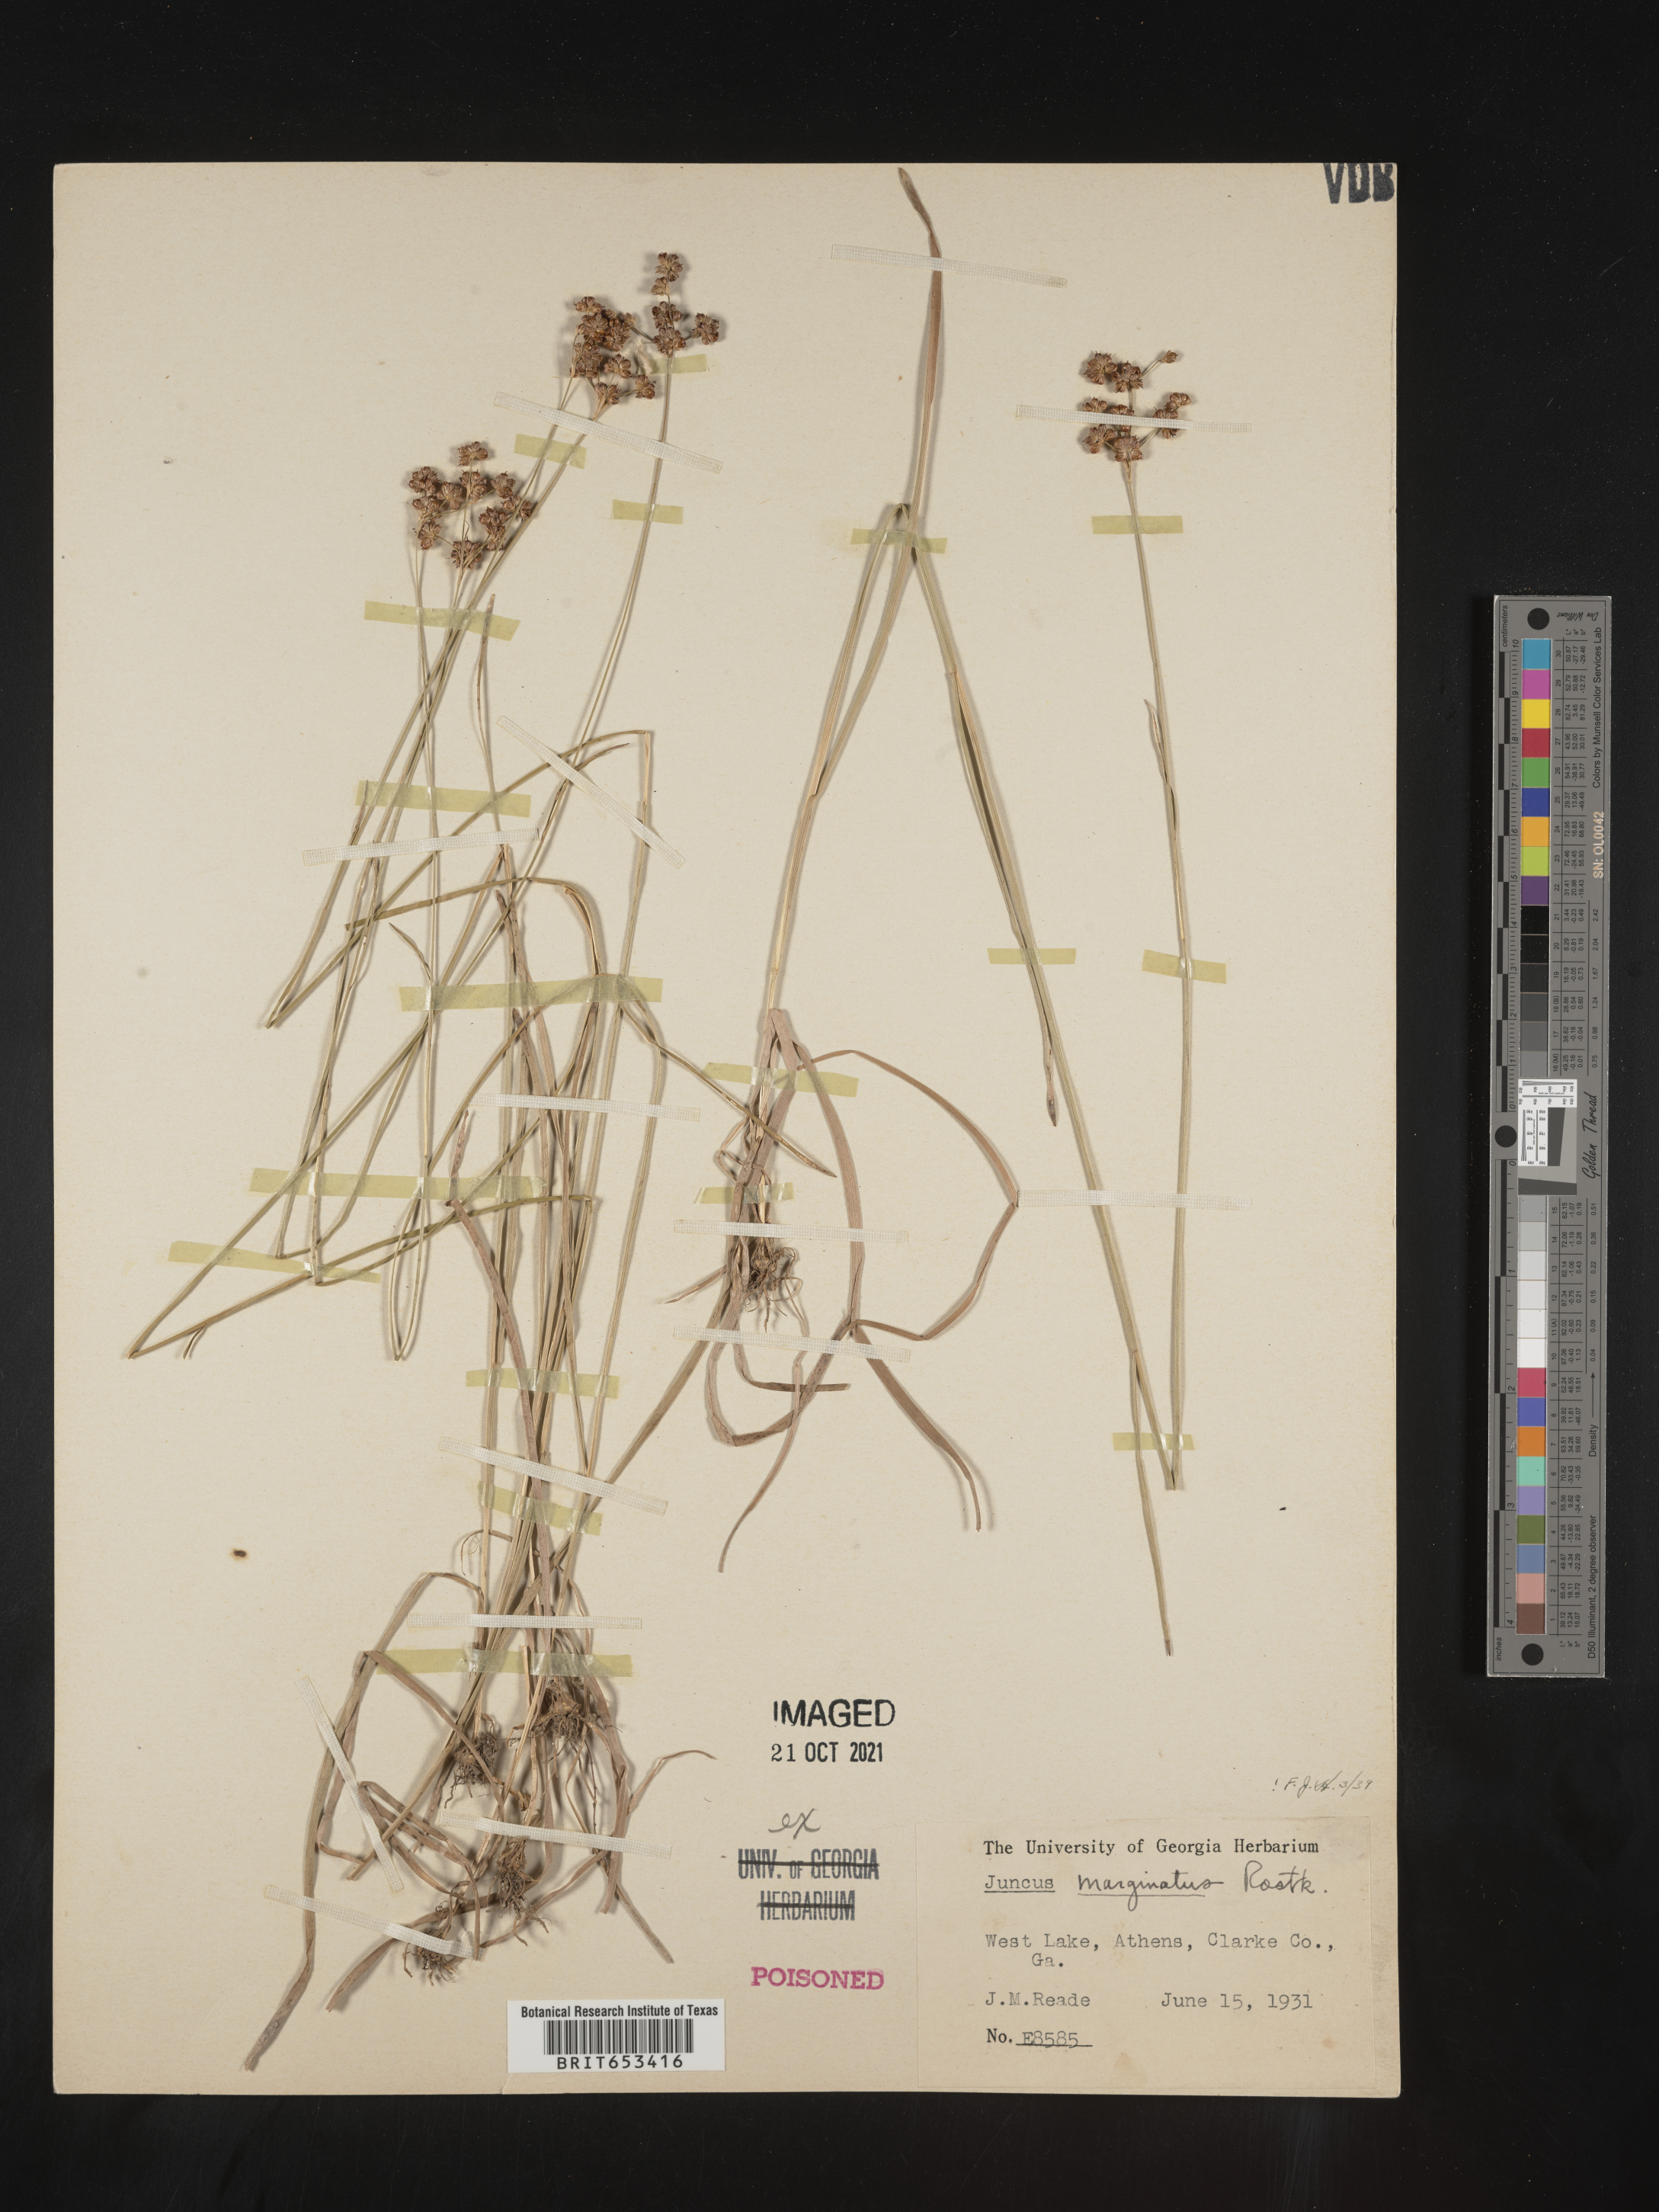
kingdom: Plantae
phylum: Tracheophyta
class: Liliopsida
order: Poales
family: Juncaceae
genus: Juncus
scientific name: Juncus marginatus
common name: Grass-leaf rush
